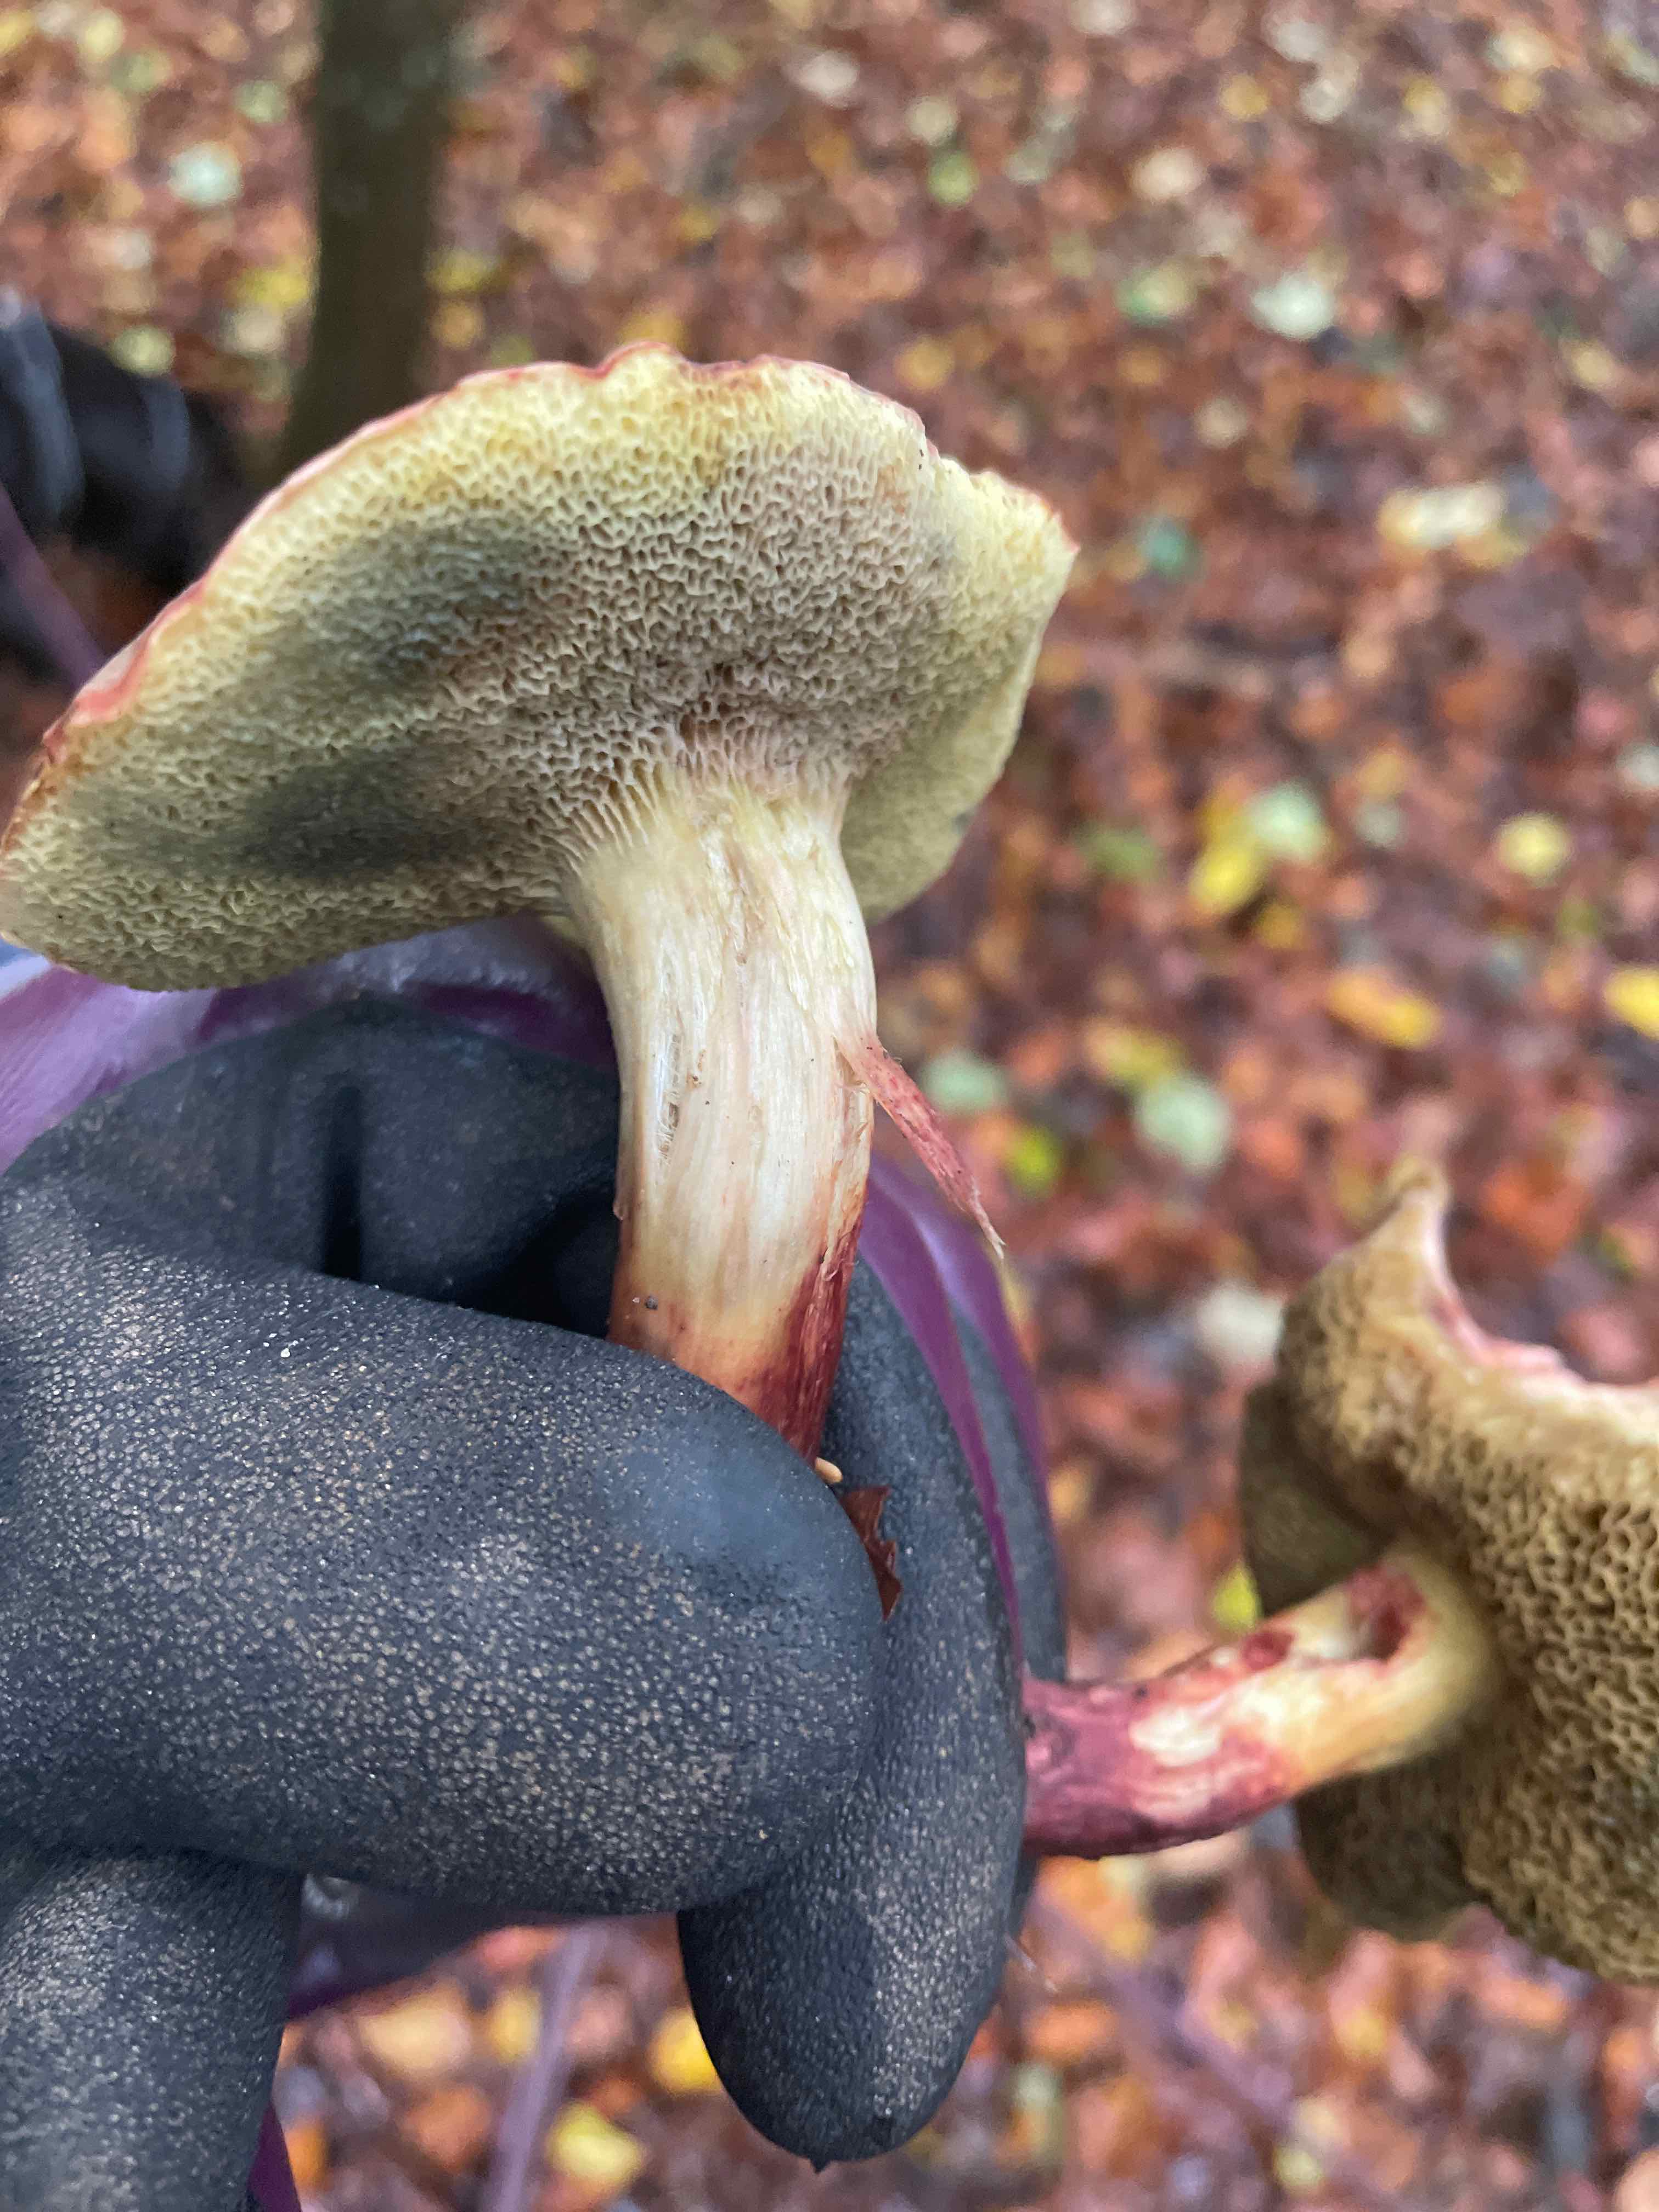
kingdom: Fungi
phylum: Basidiomycota
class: Agaricomycetes
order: Boletales
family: Boletaceae
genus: Xerocomellus
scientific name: Xerocomellus
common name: dværgrørhat
